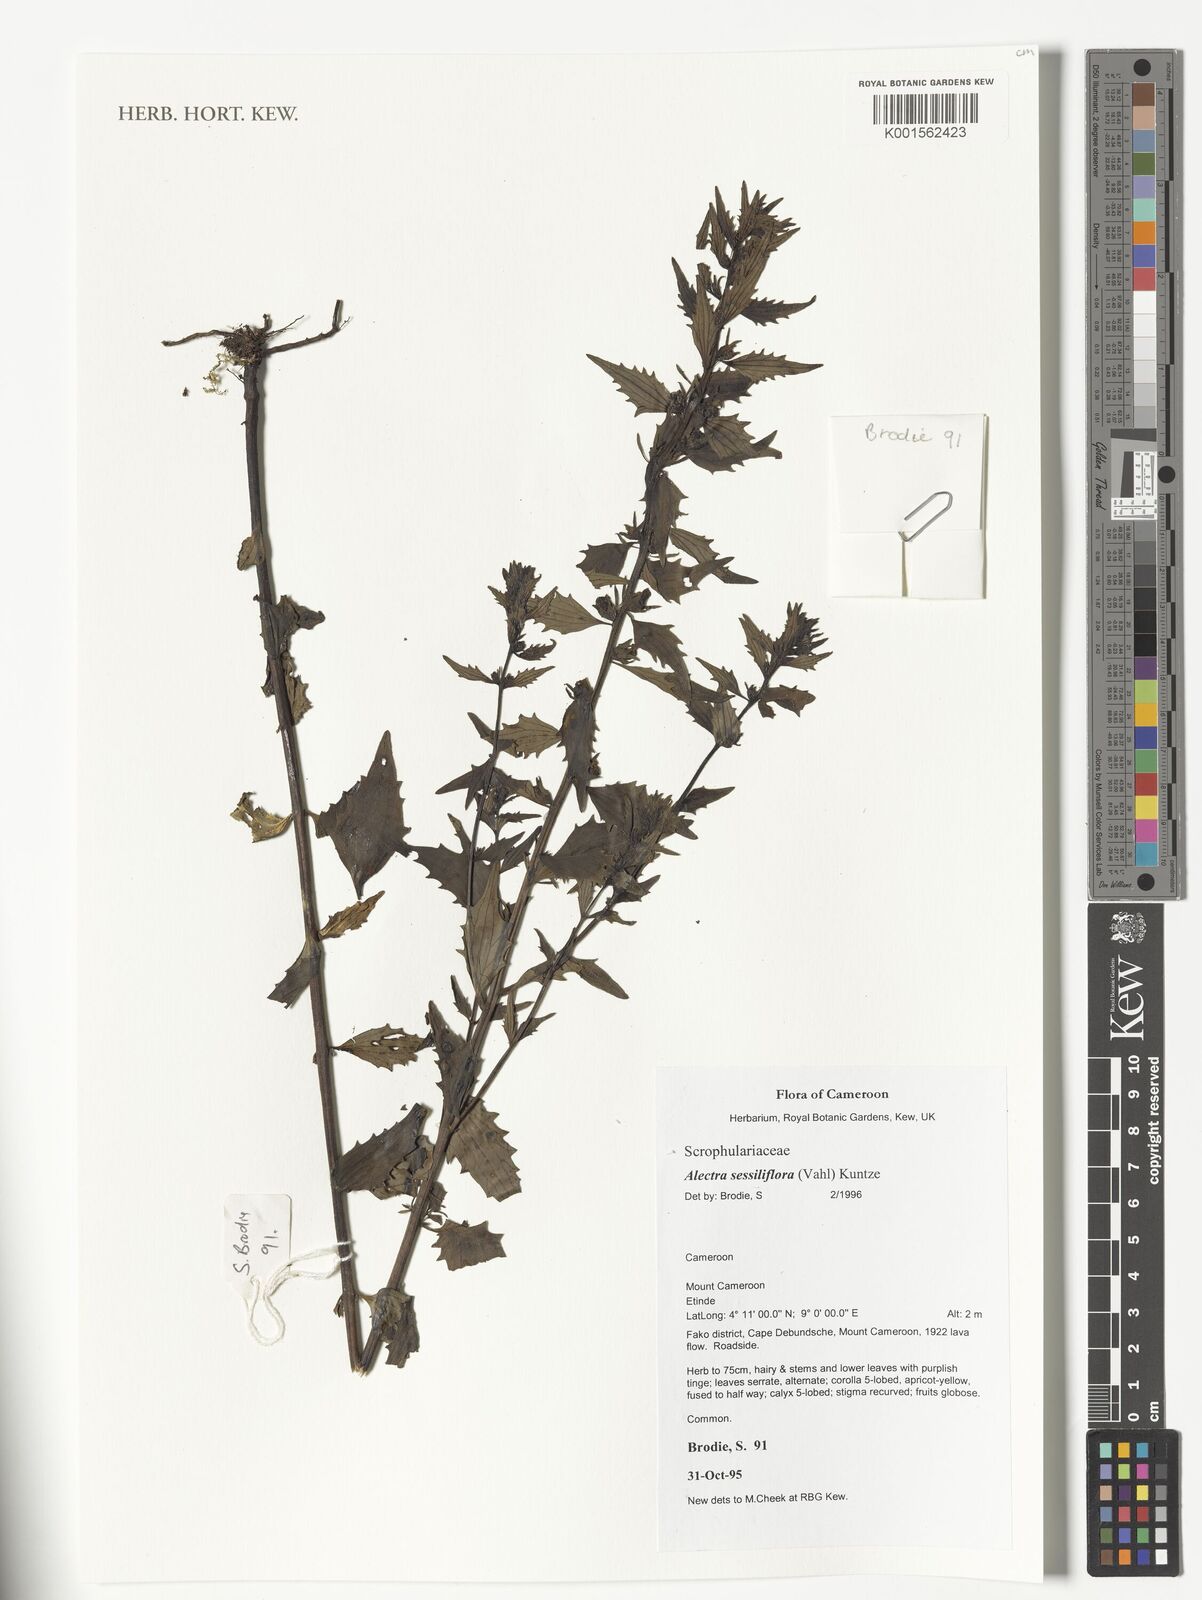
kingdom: Plantae
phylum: Tracheophyta
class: Magnoliopsida
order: Lamiales
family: Orobanchaceae
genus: Alectra
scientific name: Alectra sessiliflora
